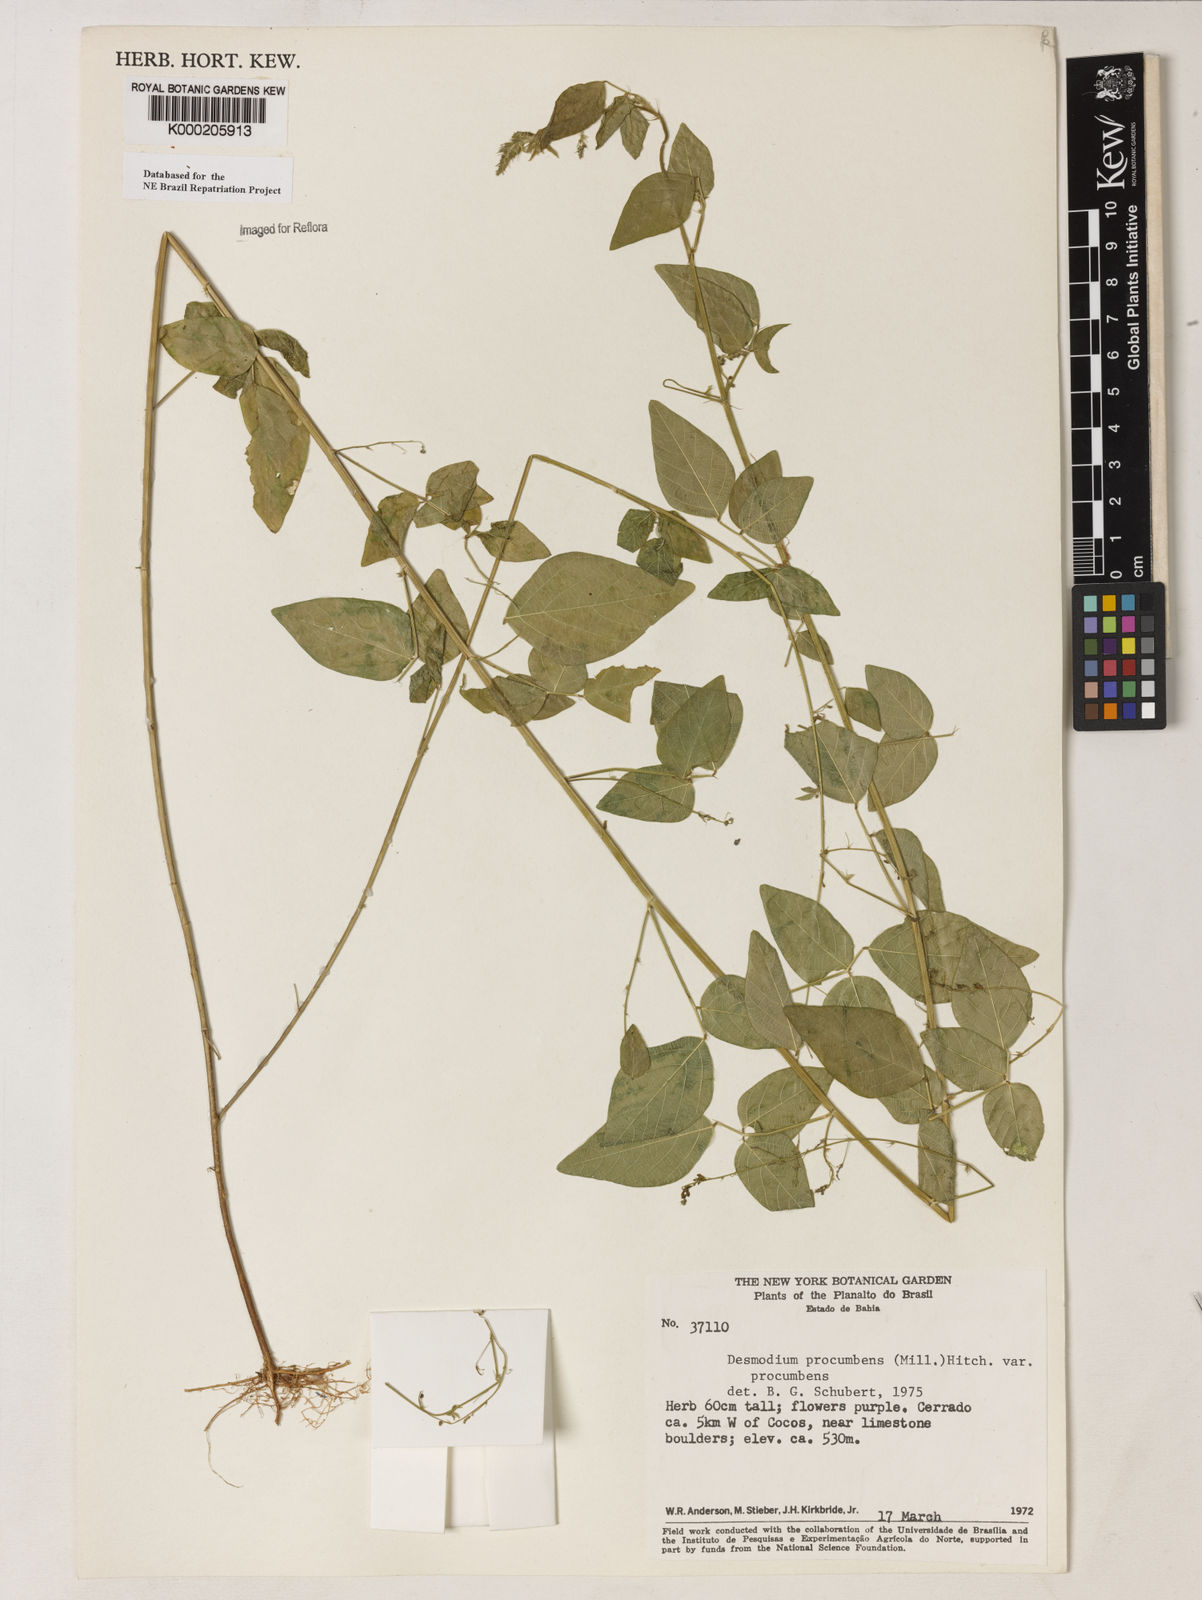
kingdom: Plantae
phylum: Tracheophyta
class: Magnoliopsida
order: Fabales
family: Fabaceae
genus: Desmodium
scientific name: Desmodium procumbens
